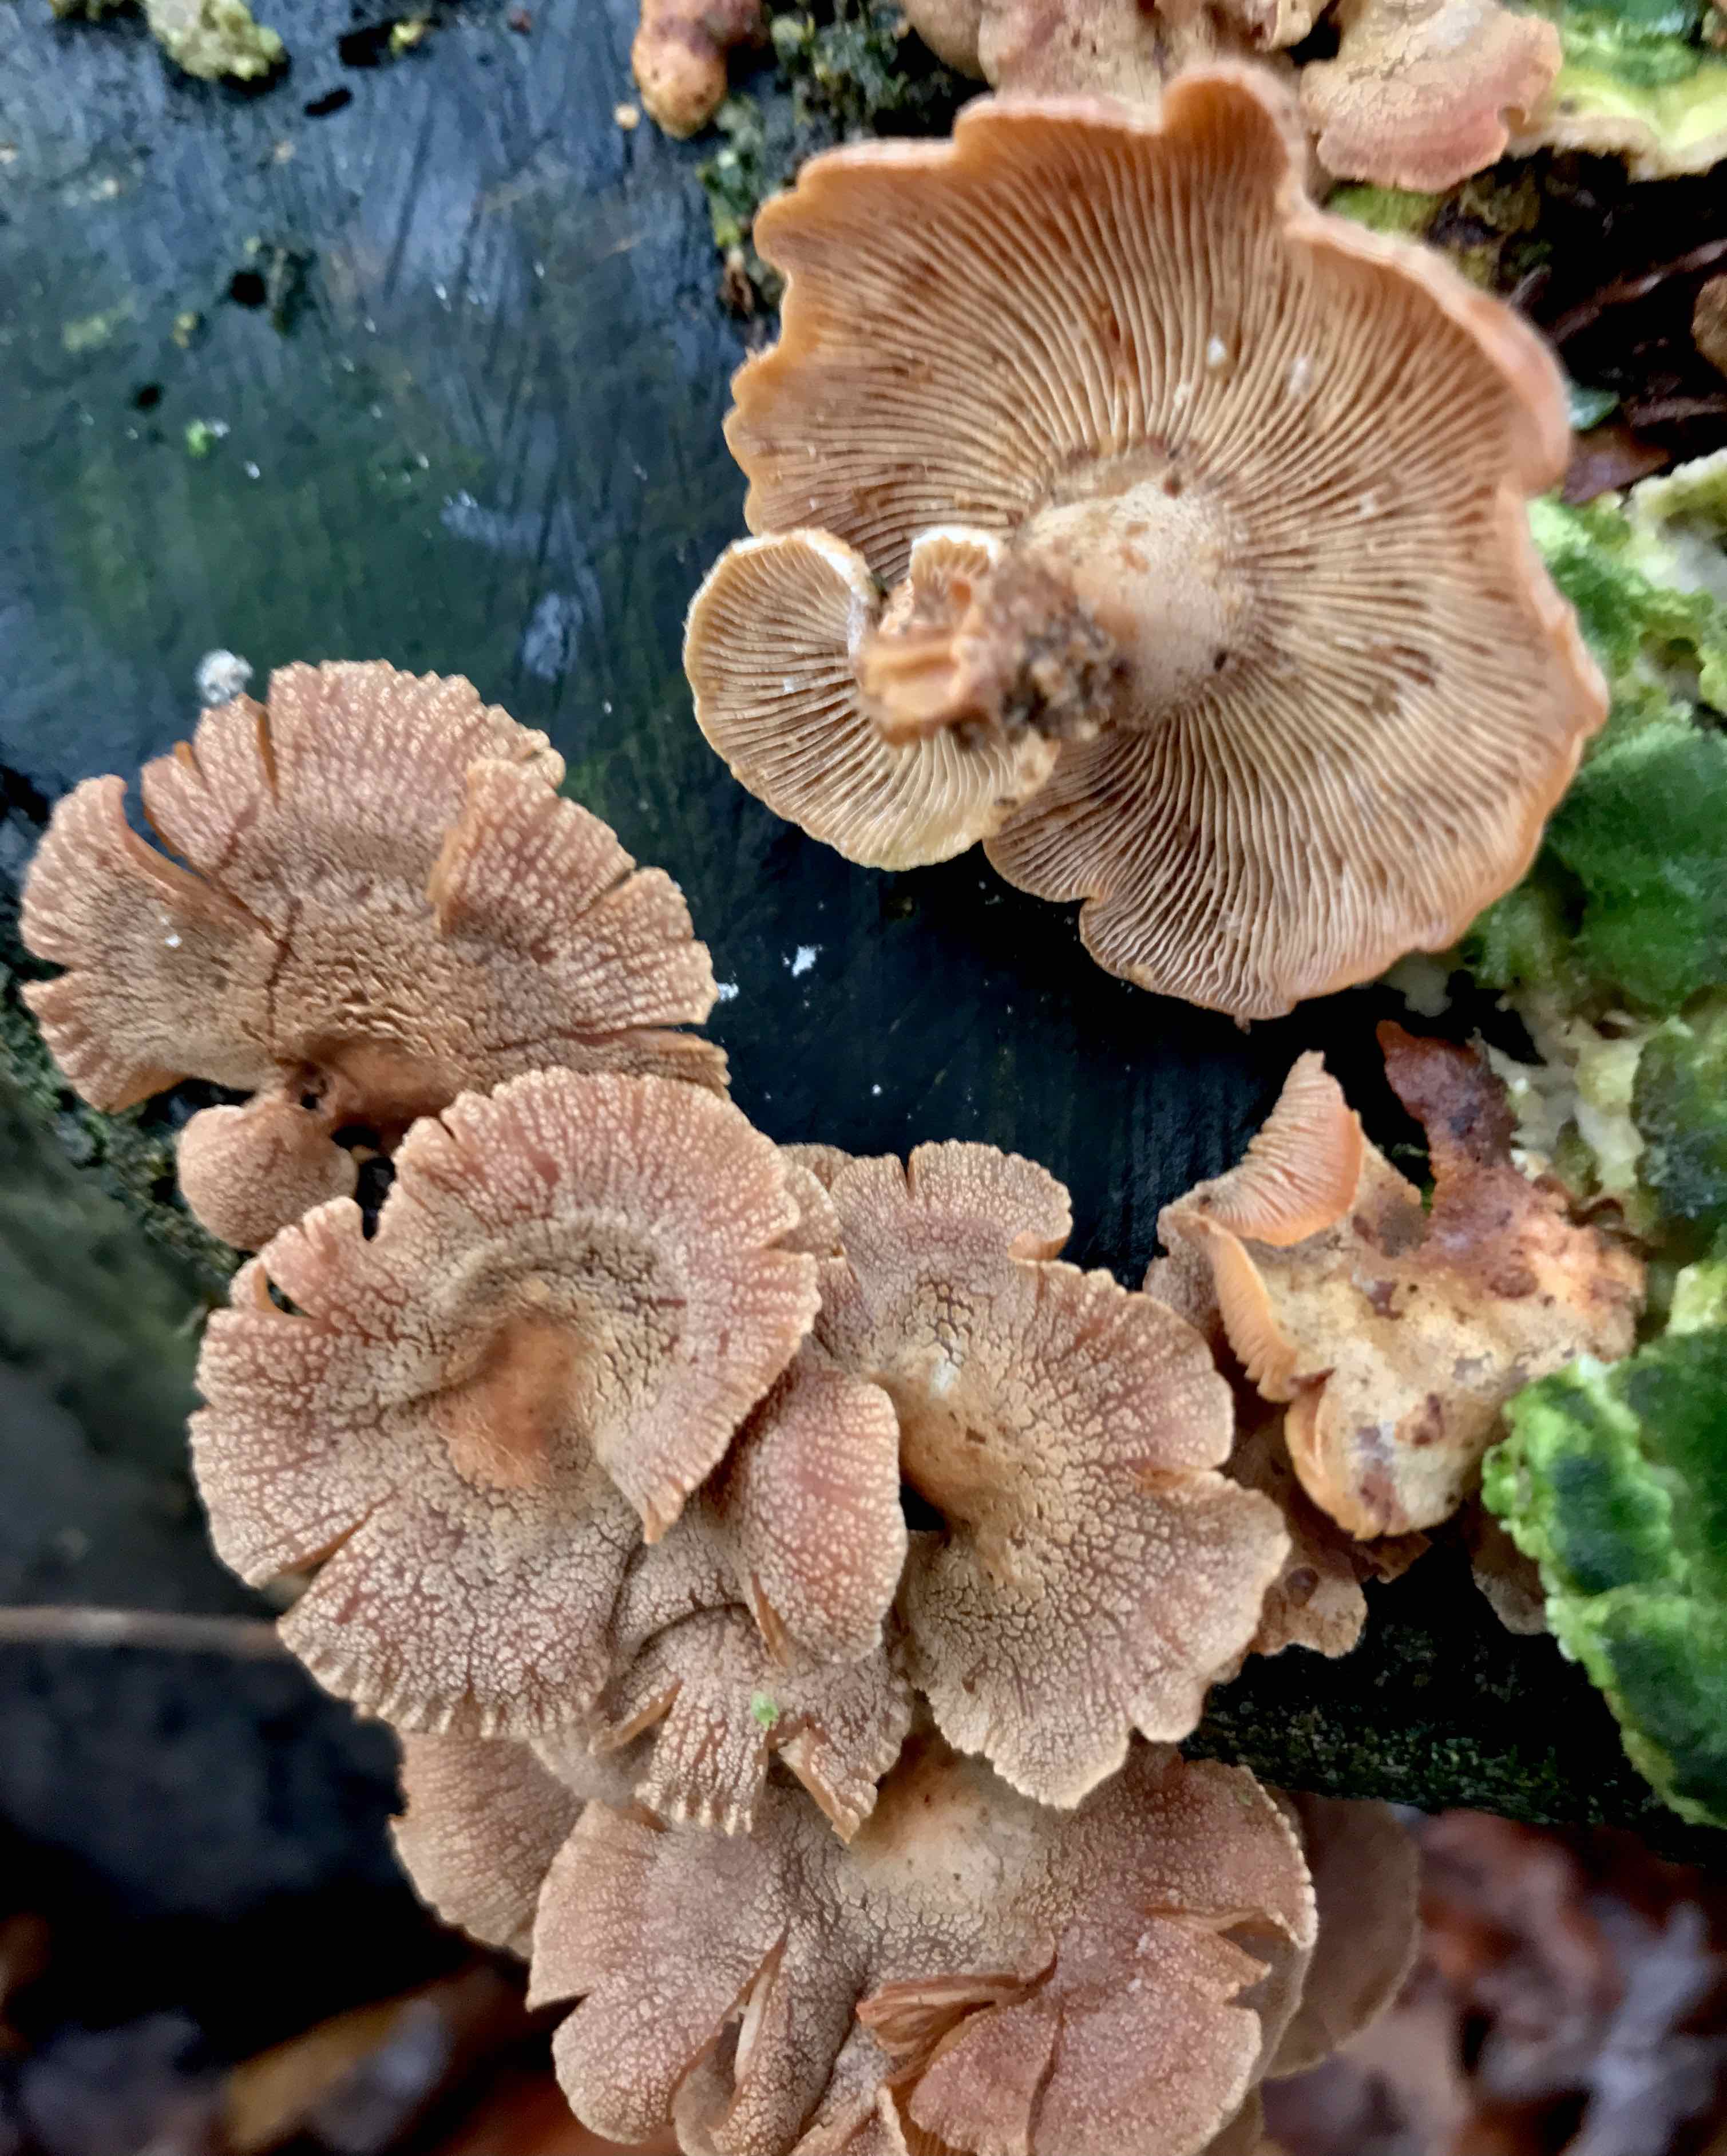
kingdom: Fungi
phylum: Basidiomycota
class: Agaricomycetes
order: Agaricales
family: Mycenaceae
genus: Panellus
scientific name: Panellus stipticus
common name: kliddet epaulethat
